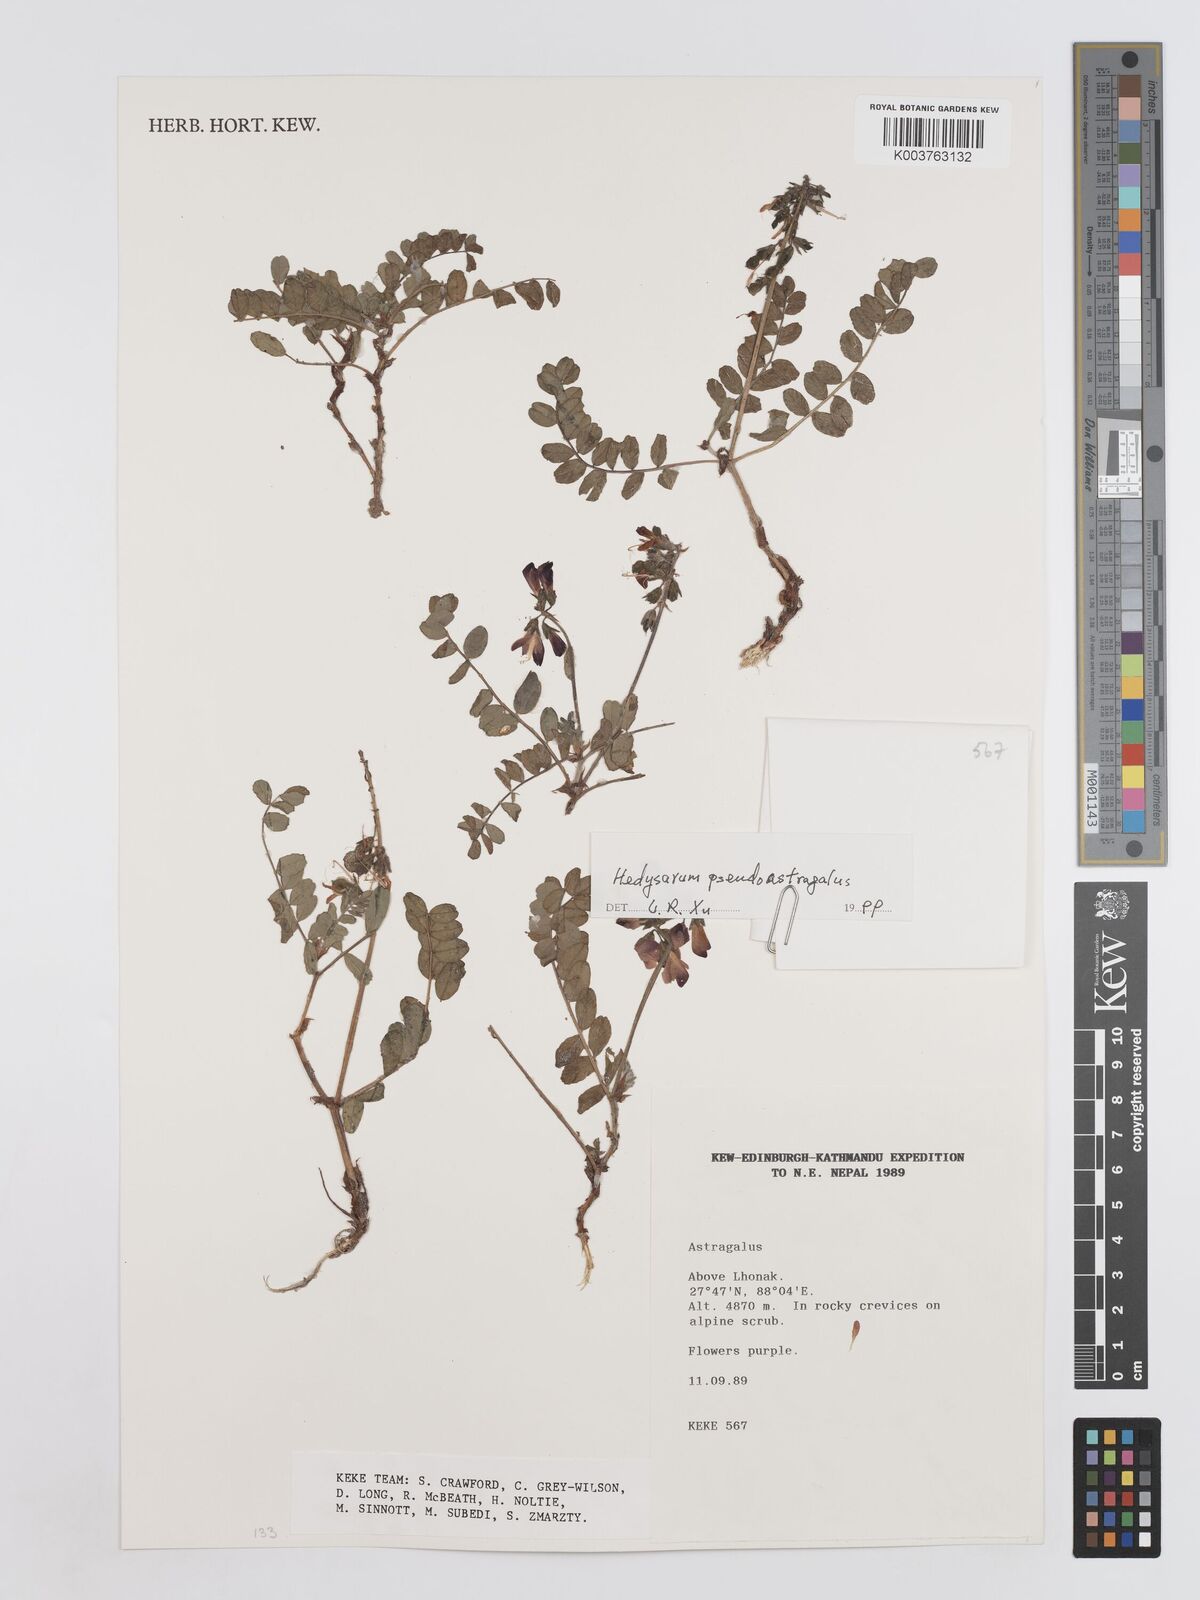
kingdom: Plantae
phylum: Tracheophyta
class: Magnoliopsida
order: Fabales
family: Fabaceae
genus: Hedysarum
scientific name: Hedysarum pseudastragalus
